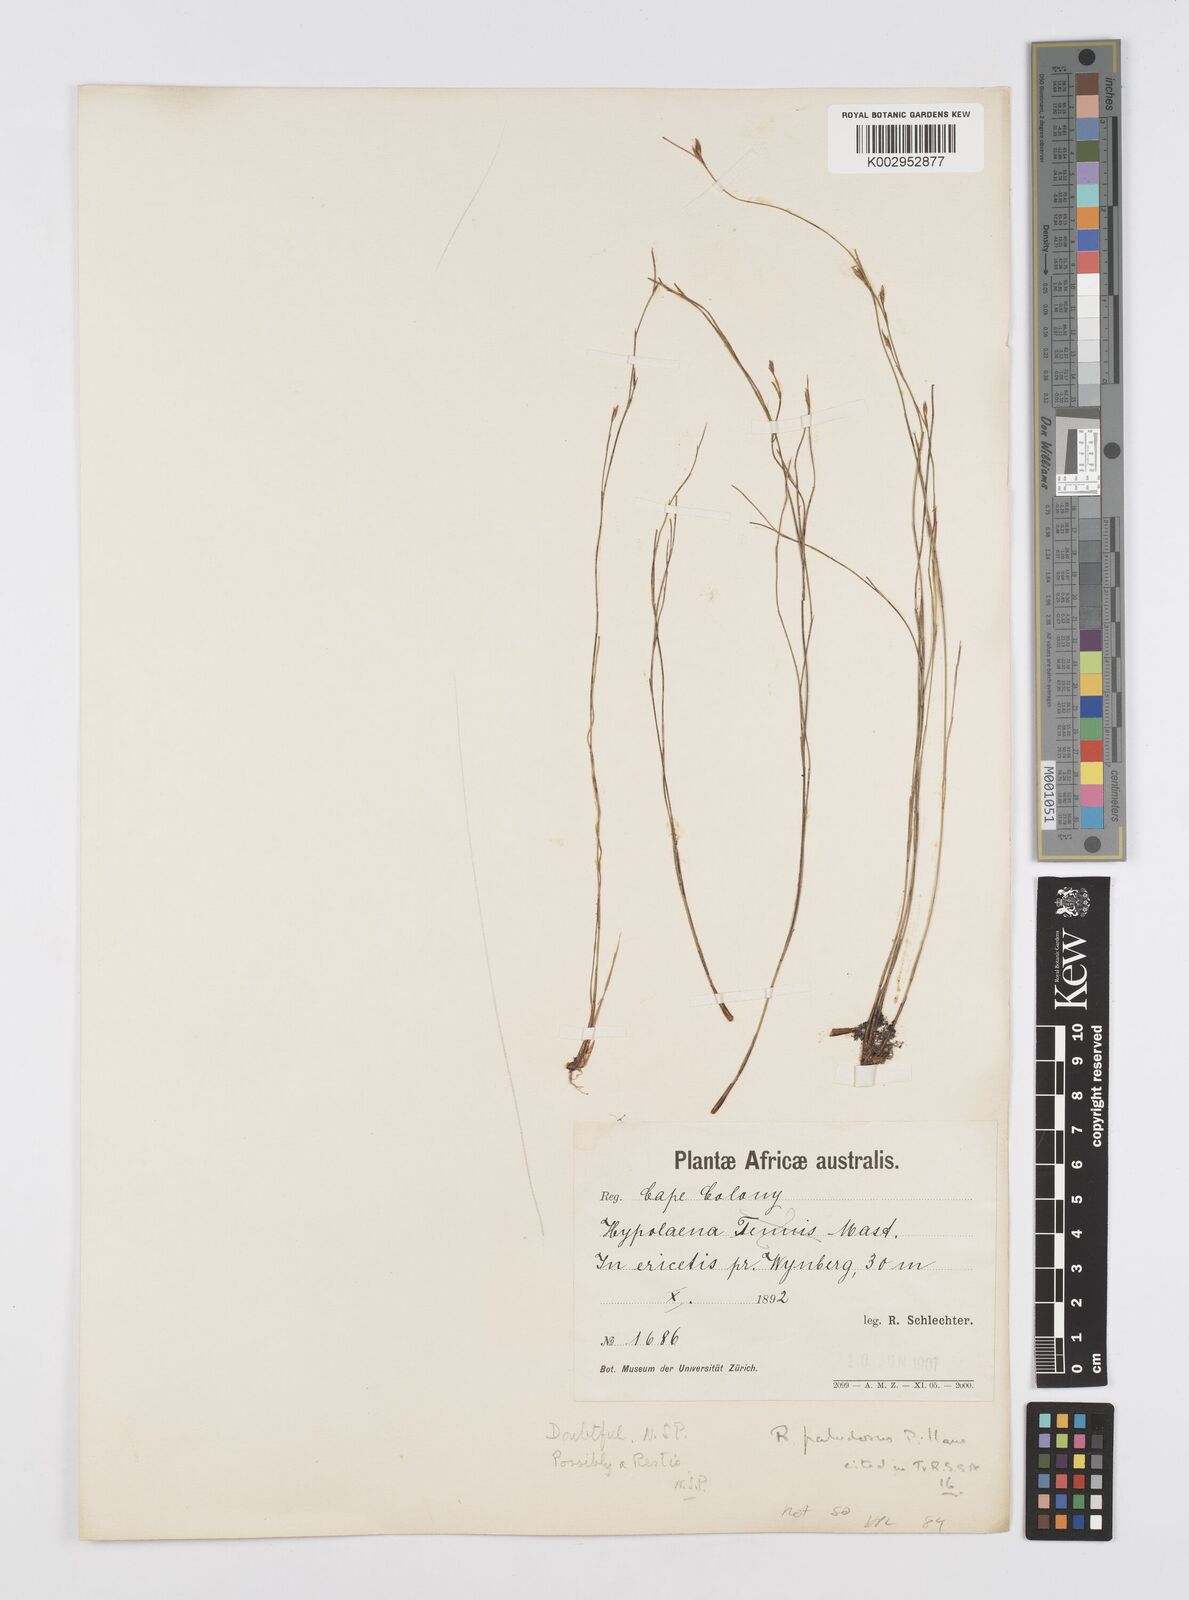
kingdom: Plantae
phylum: Tracheophyta
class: Liliopsida
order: Poales
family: Restionaceae
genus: Restio
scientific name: Restio paludosus
